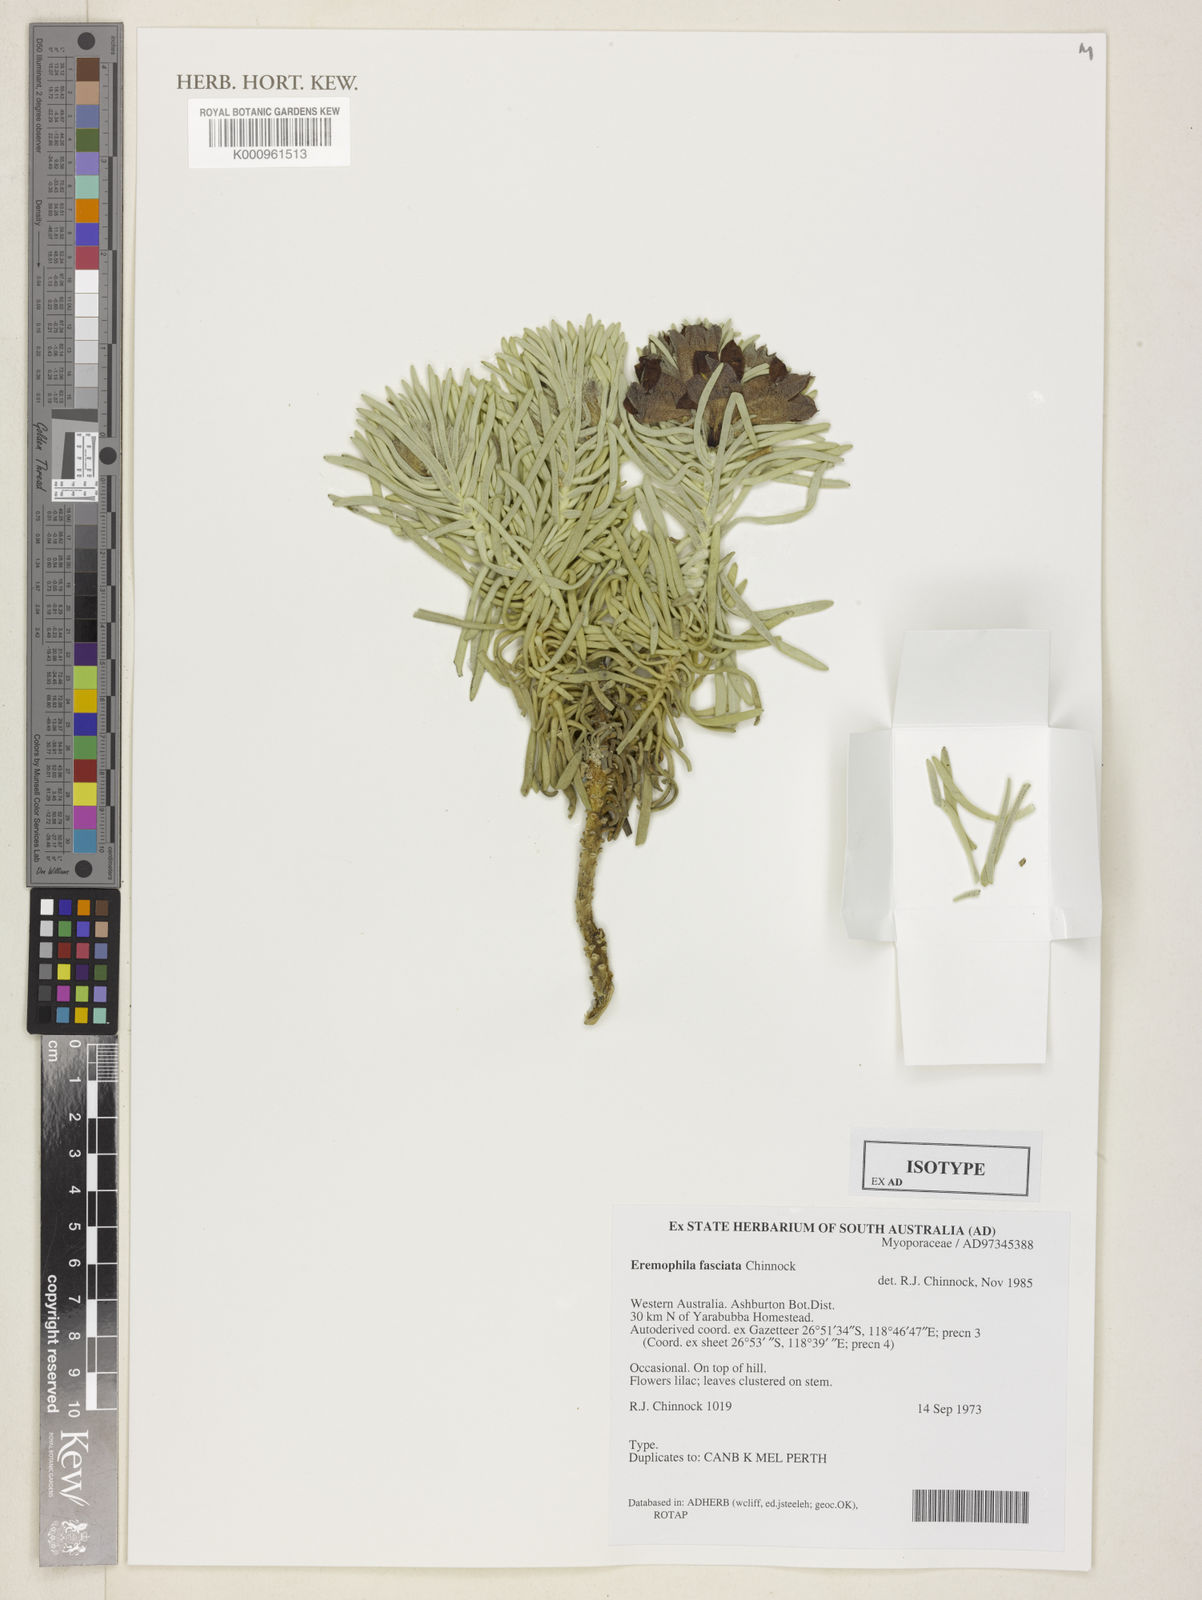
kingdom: Plantae
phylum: Tracheophyta
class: Magnoliopsida
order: Lamiales
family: Scrophulariaceae
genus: Eremophila
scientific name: Eremophila fasciata
